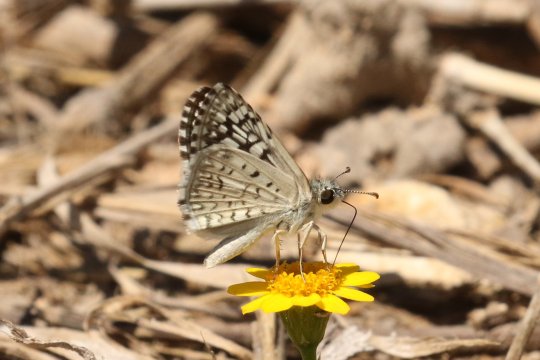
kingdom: Animalia
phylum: Arthropoda
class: Insecta
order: Lepidoptera
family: Hesperiidae
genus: Pyrgus
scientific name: Pyrgus oileus
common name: Desert Checkered-Skipper
